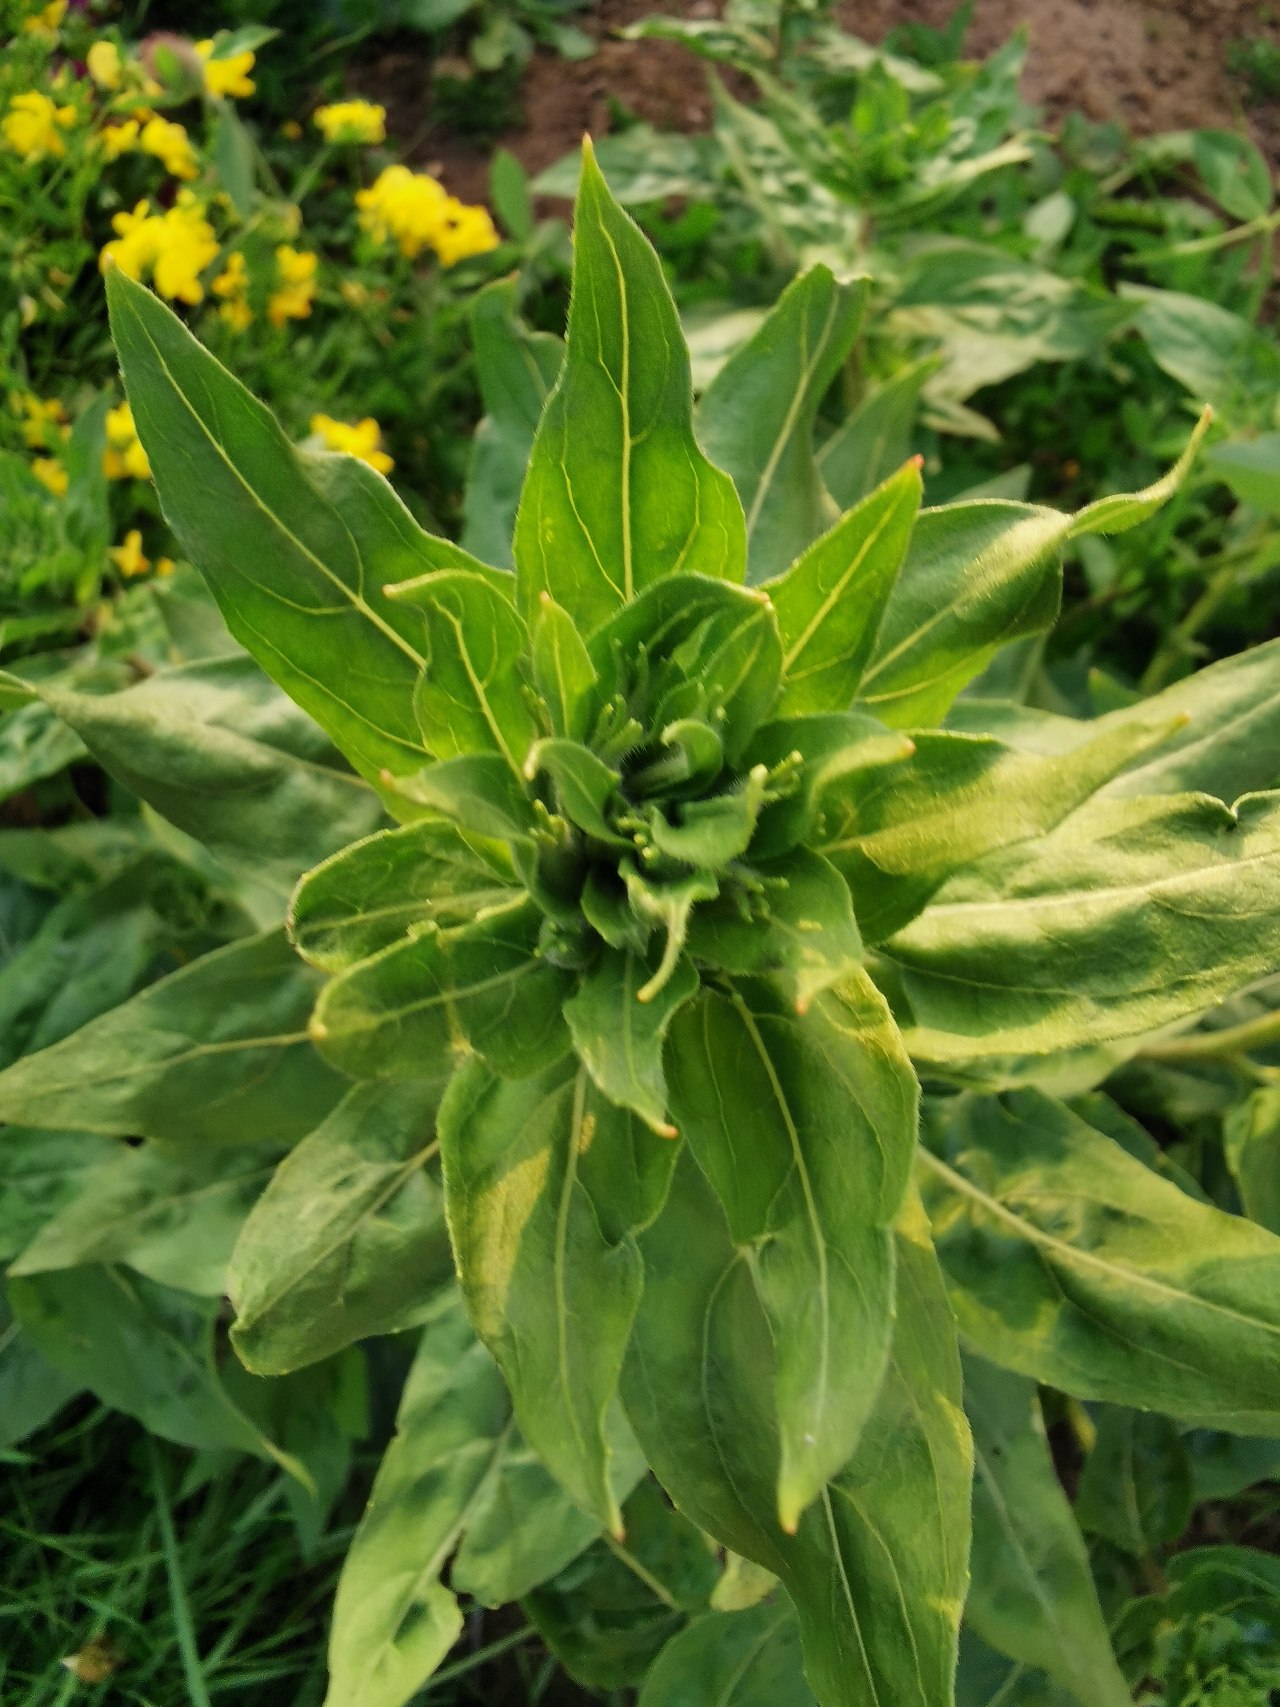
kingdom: Plantae
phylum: Tracheophyta
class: Magnoliopsida
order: Myrtales
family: Onagraceae
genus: Oenothera
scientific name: Oenothera
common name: Natlysslægten
